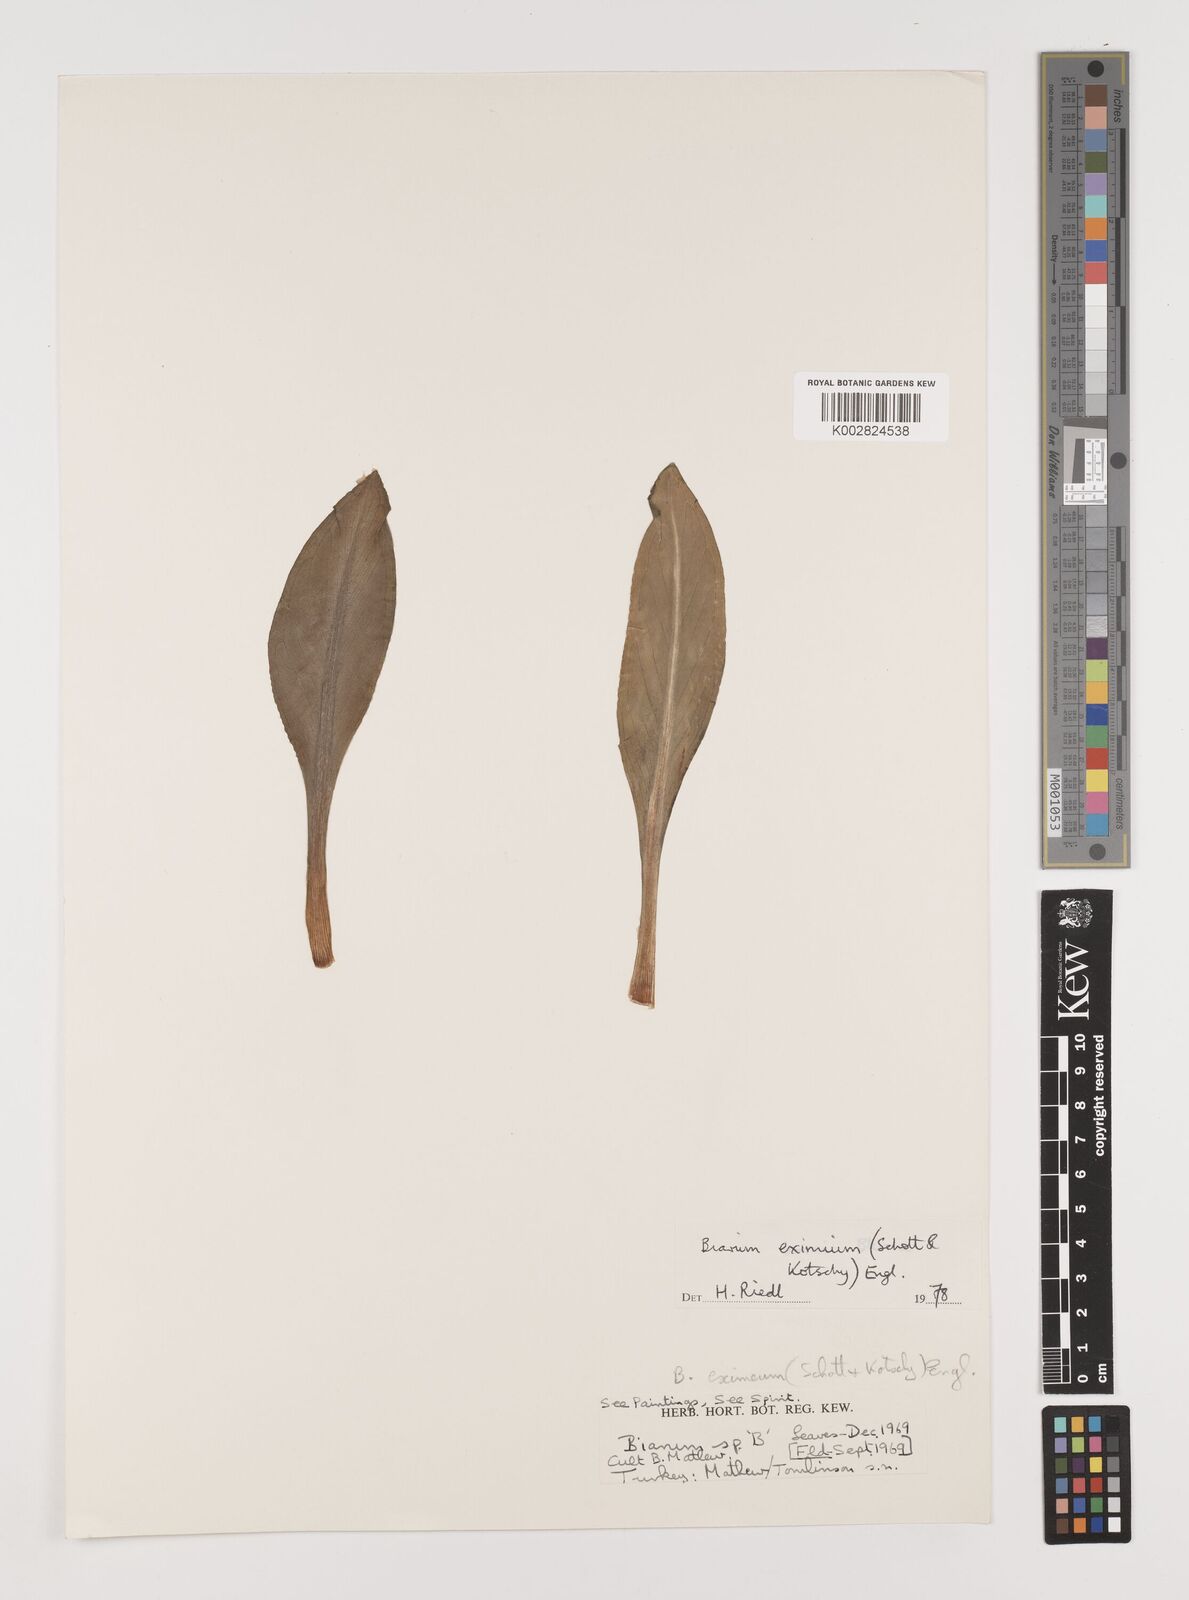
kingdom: Plantae
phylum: Tracheophyta
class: Liliopsida
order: Alismatales
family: Araceae
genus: Biarum
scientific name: Biarum eximium
